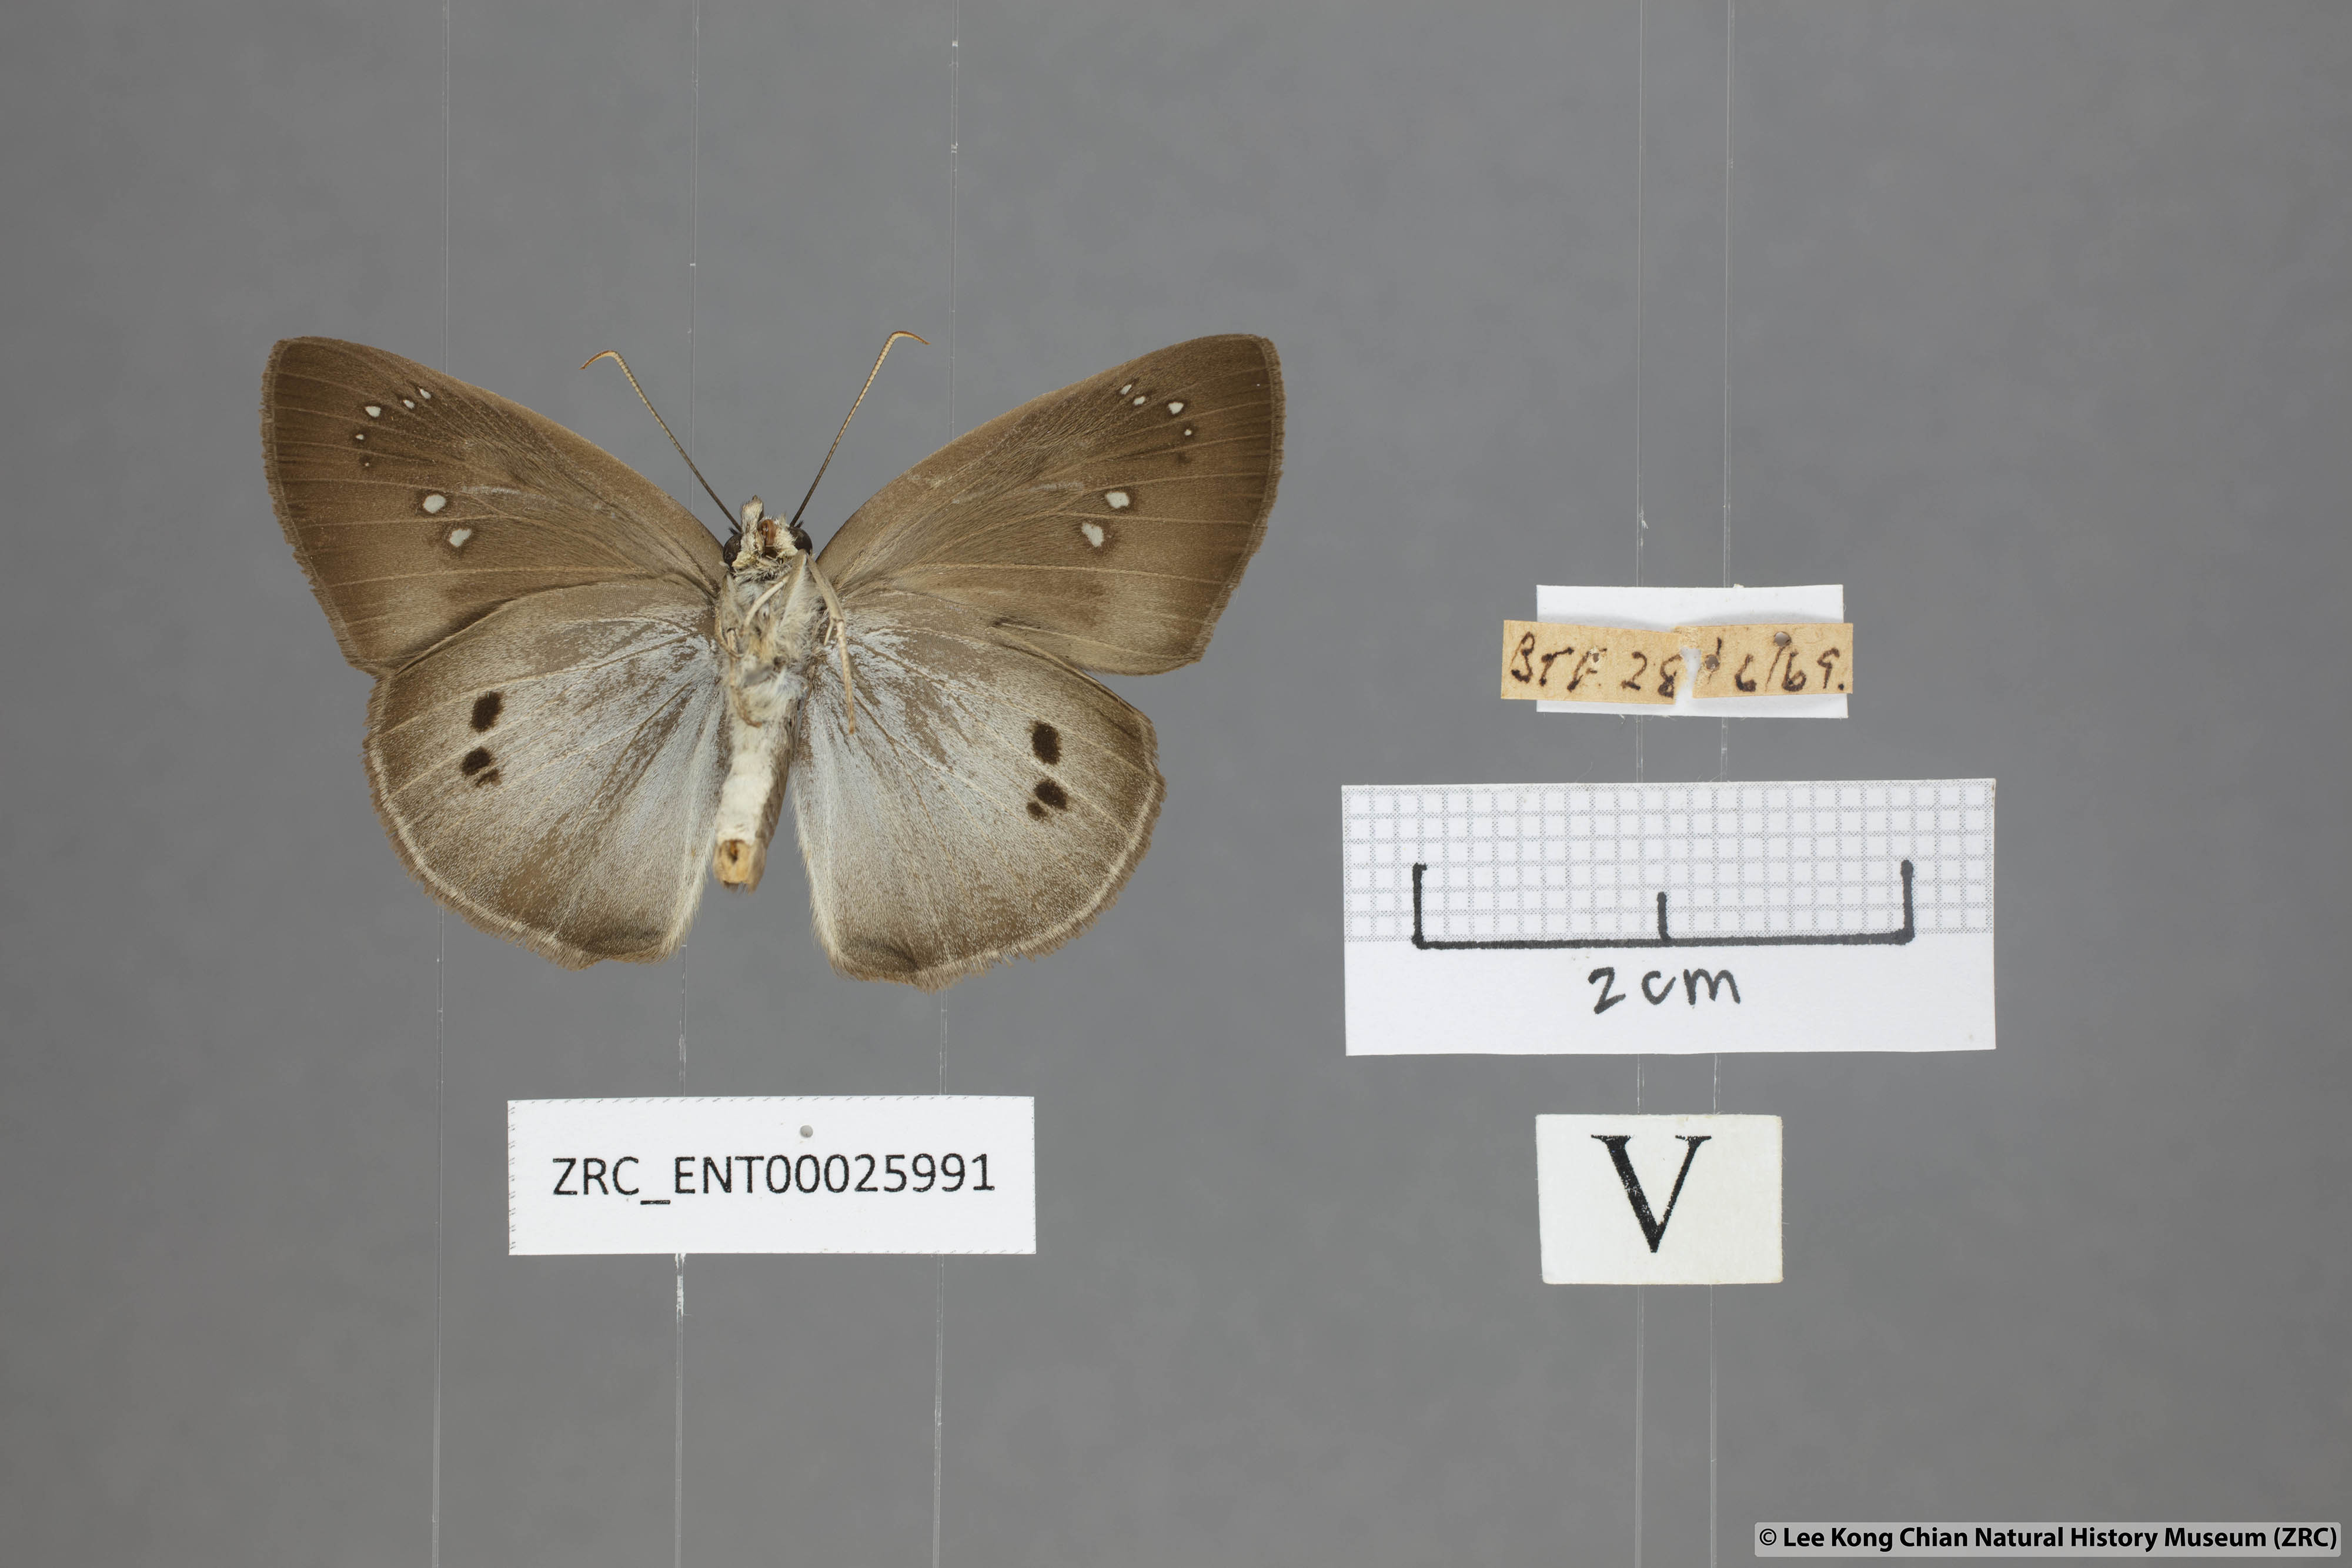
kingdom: Animalia
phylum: Arthropoda
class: Insecta
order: Lepidoptera
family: Hesperiidae
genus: Tagiades
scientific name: Tagiades japetus
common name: Pied flat
